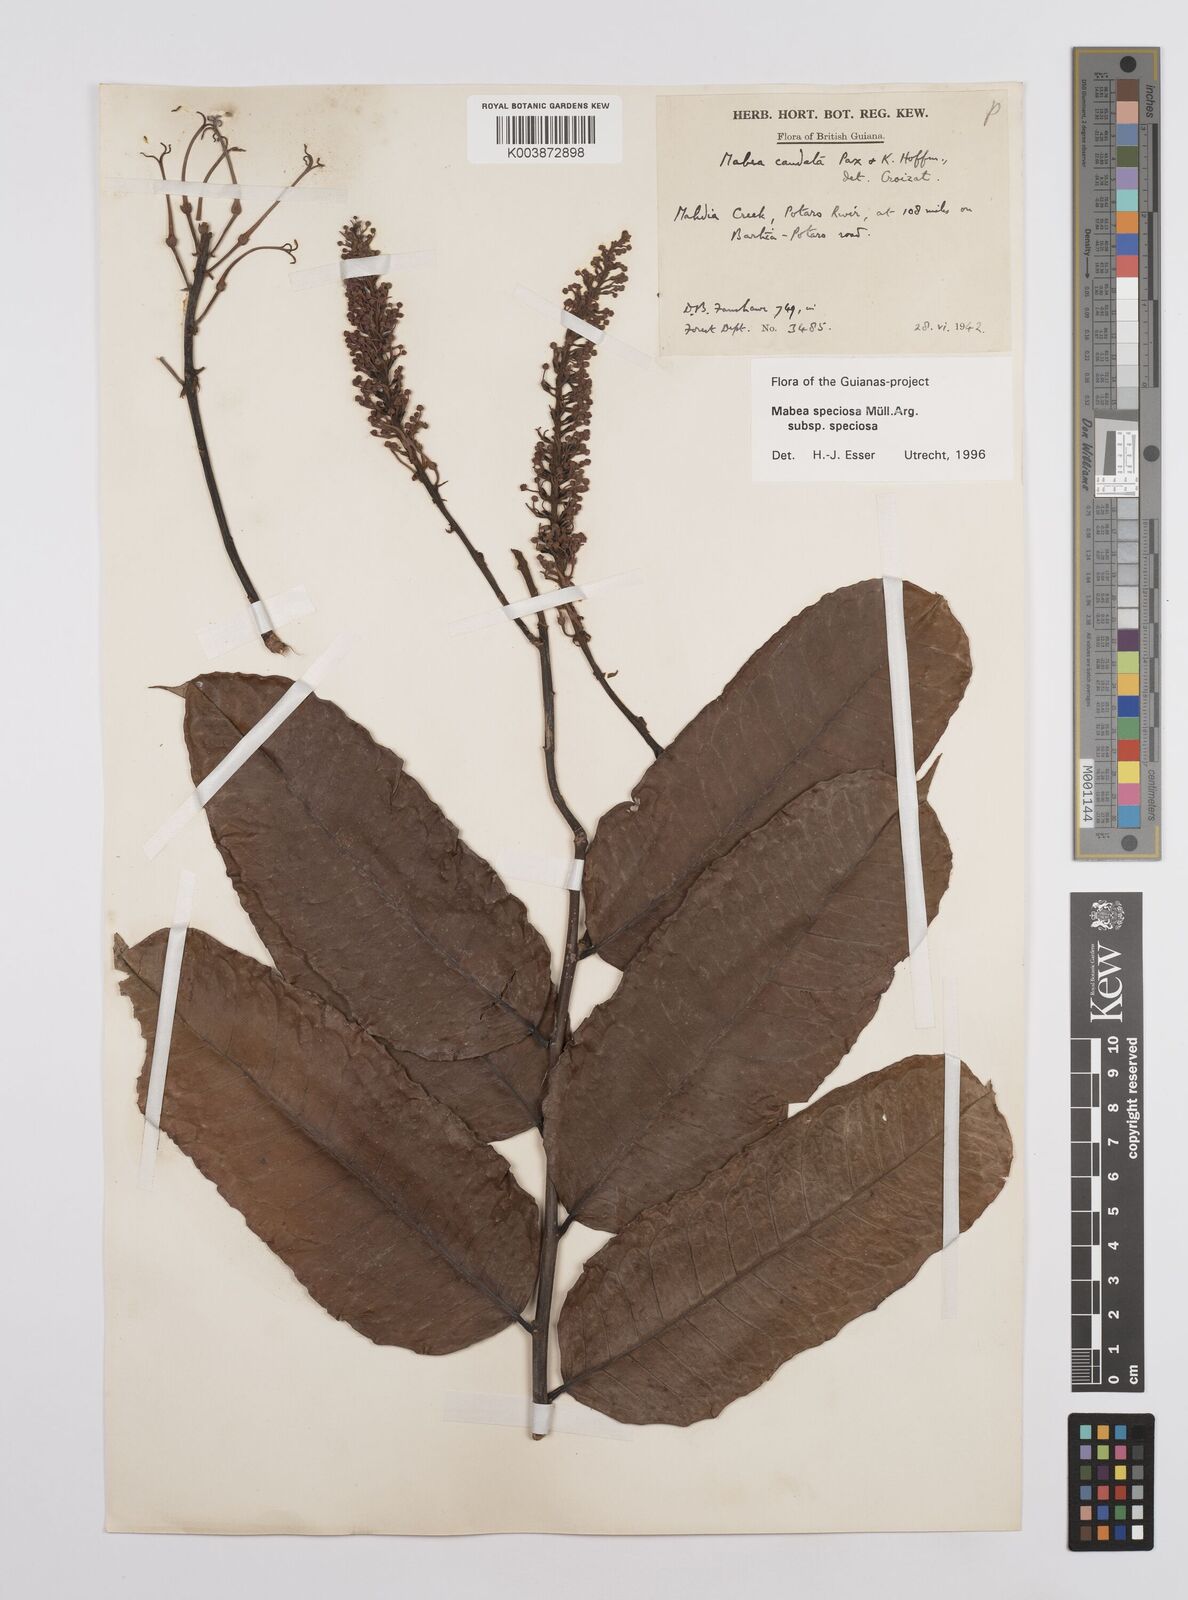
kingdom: Plantae
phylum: Tracheophyta
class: Magnoliopsida
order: Malpighiales
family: Euphorbiaceae
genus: Mabea
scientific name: Mabea speciosa
